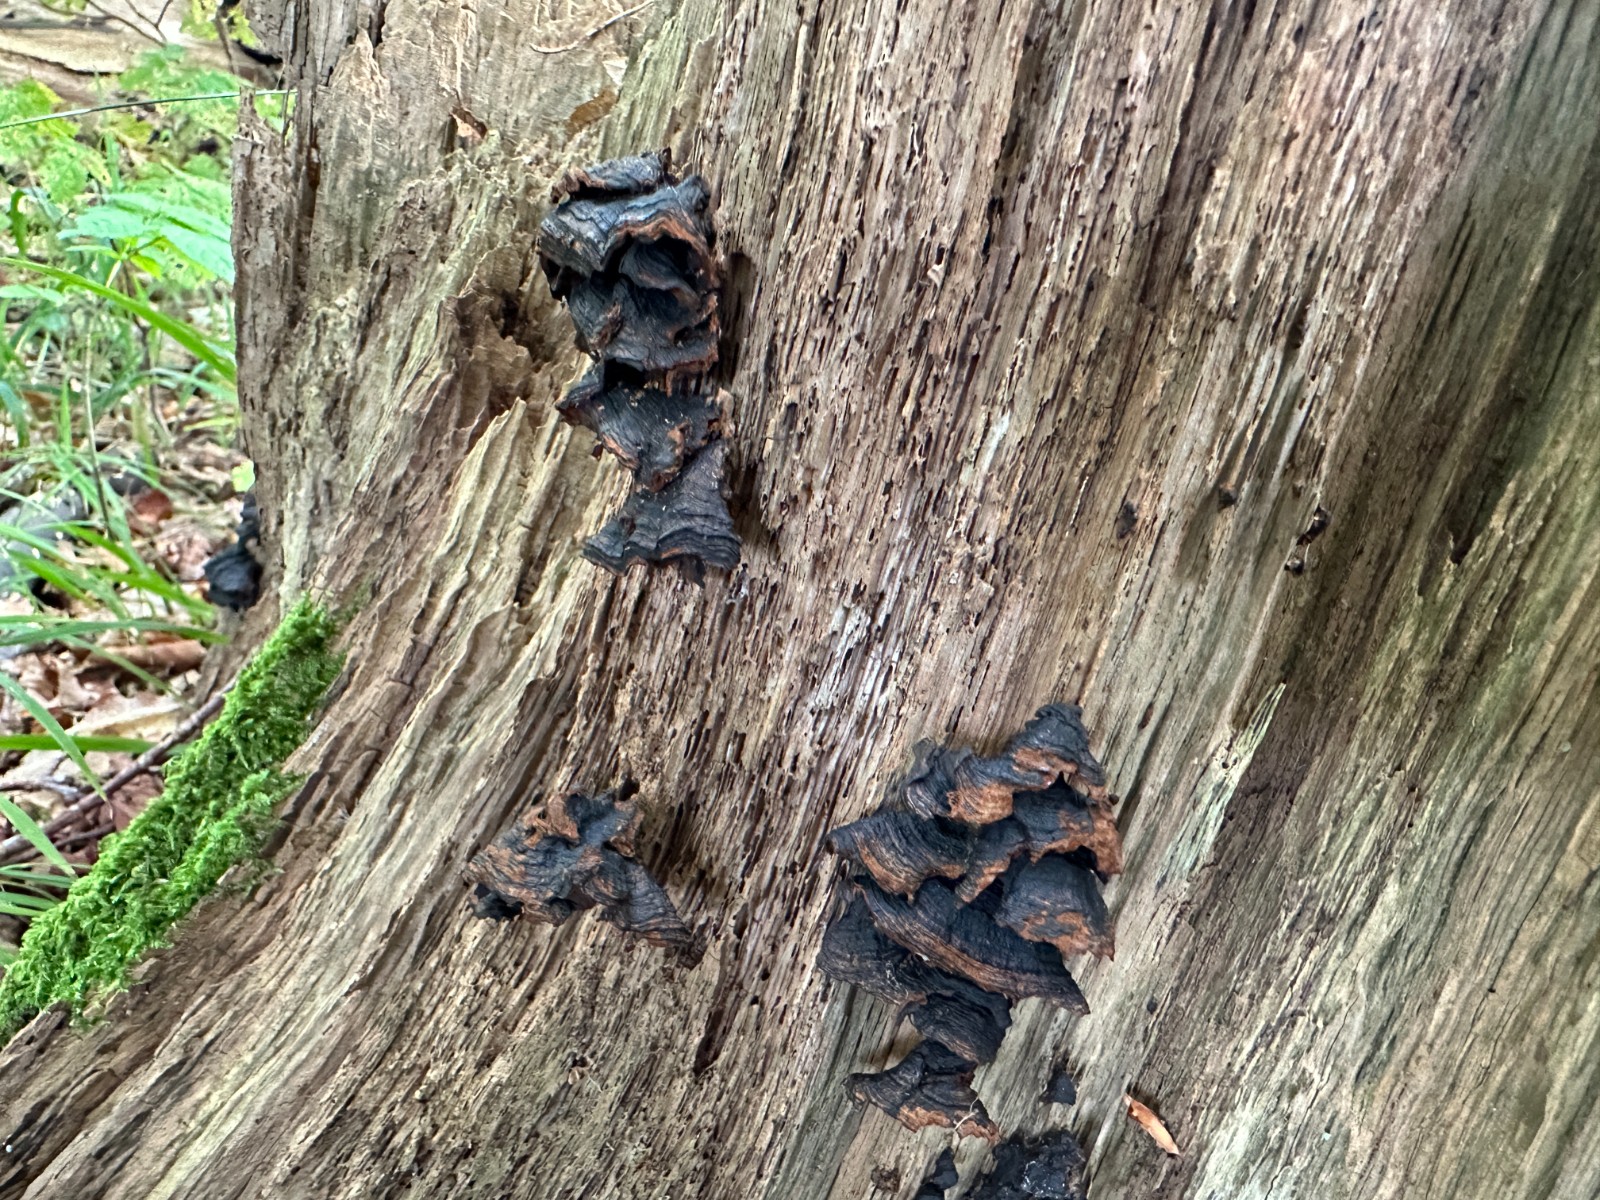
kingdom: Fungi
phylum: Basidiomycota
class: Agaricomycetes
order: Hymenochaetales
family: Hymenochaetaceae
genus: Hymenochaete
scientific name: Hymenochaete rubiginosa
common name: stiv ruslædersvamp
